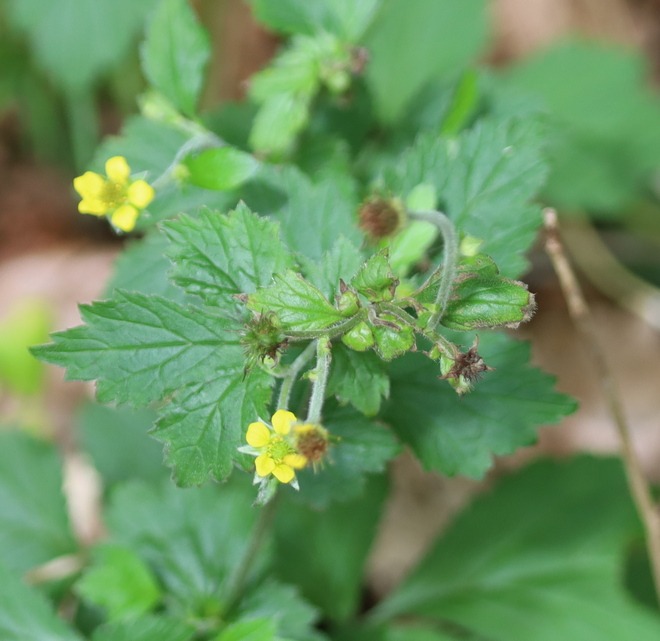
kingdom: Plantae
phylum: Tracheophyta
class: Magnoliopsida
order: Rosales
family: Rosaceae
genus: Geum
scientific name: Geum urbanum
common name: Feber-nellikerod
